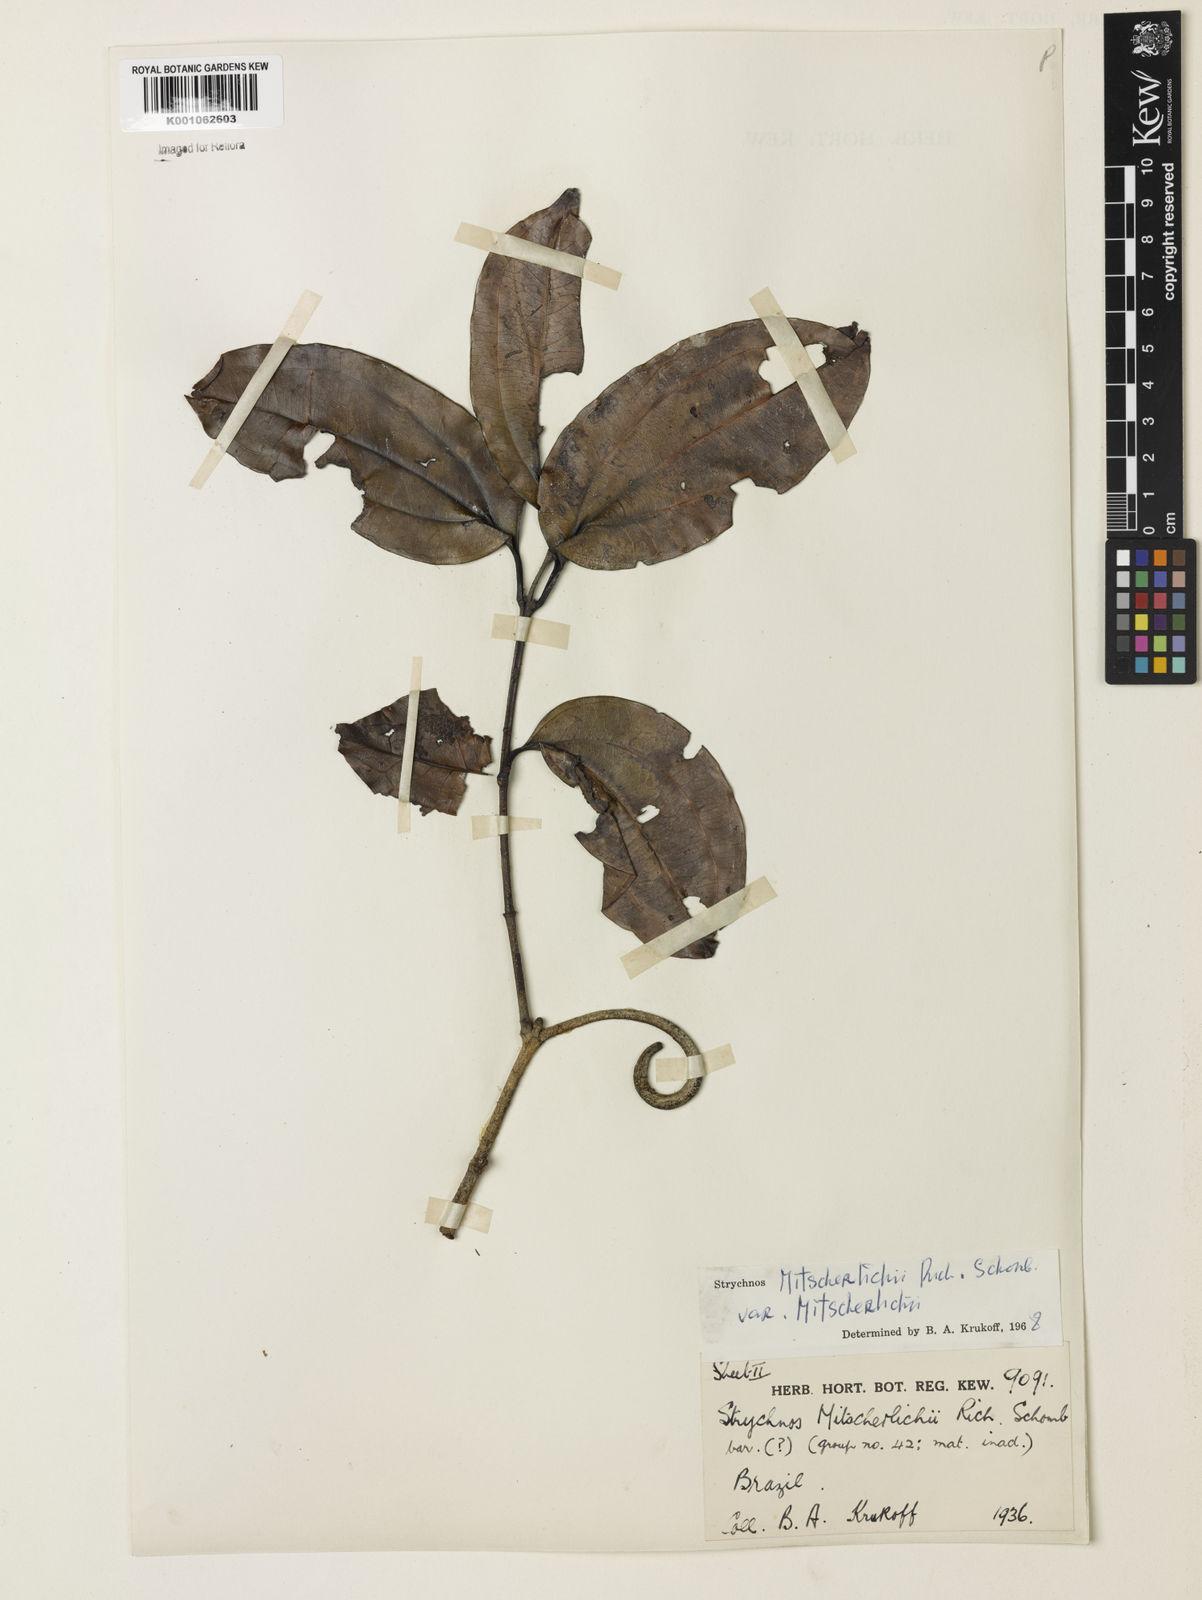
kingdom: Plantae
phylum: Tracheophyta
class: Magnoliopsida
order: Gentianales
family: Loganiaceae
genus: Strychnos
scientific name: Strychnos mitscherlichii
